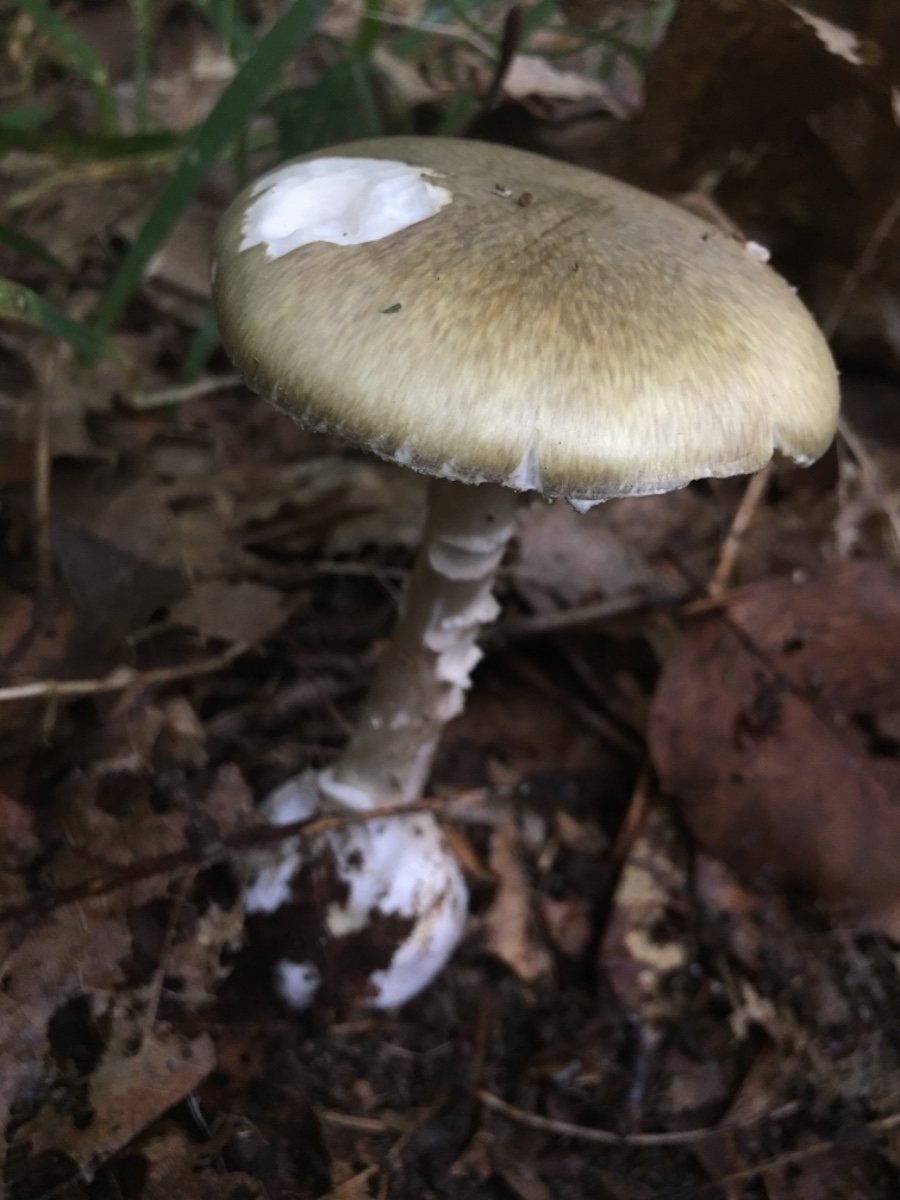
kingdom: Fungi
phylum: Basidiomycota
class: Agaricomycetes
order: Agaricales
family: Amanitaceae
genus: Amanita
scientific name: Amanita phalloides
